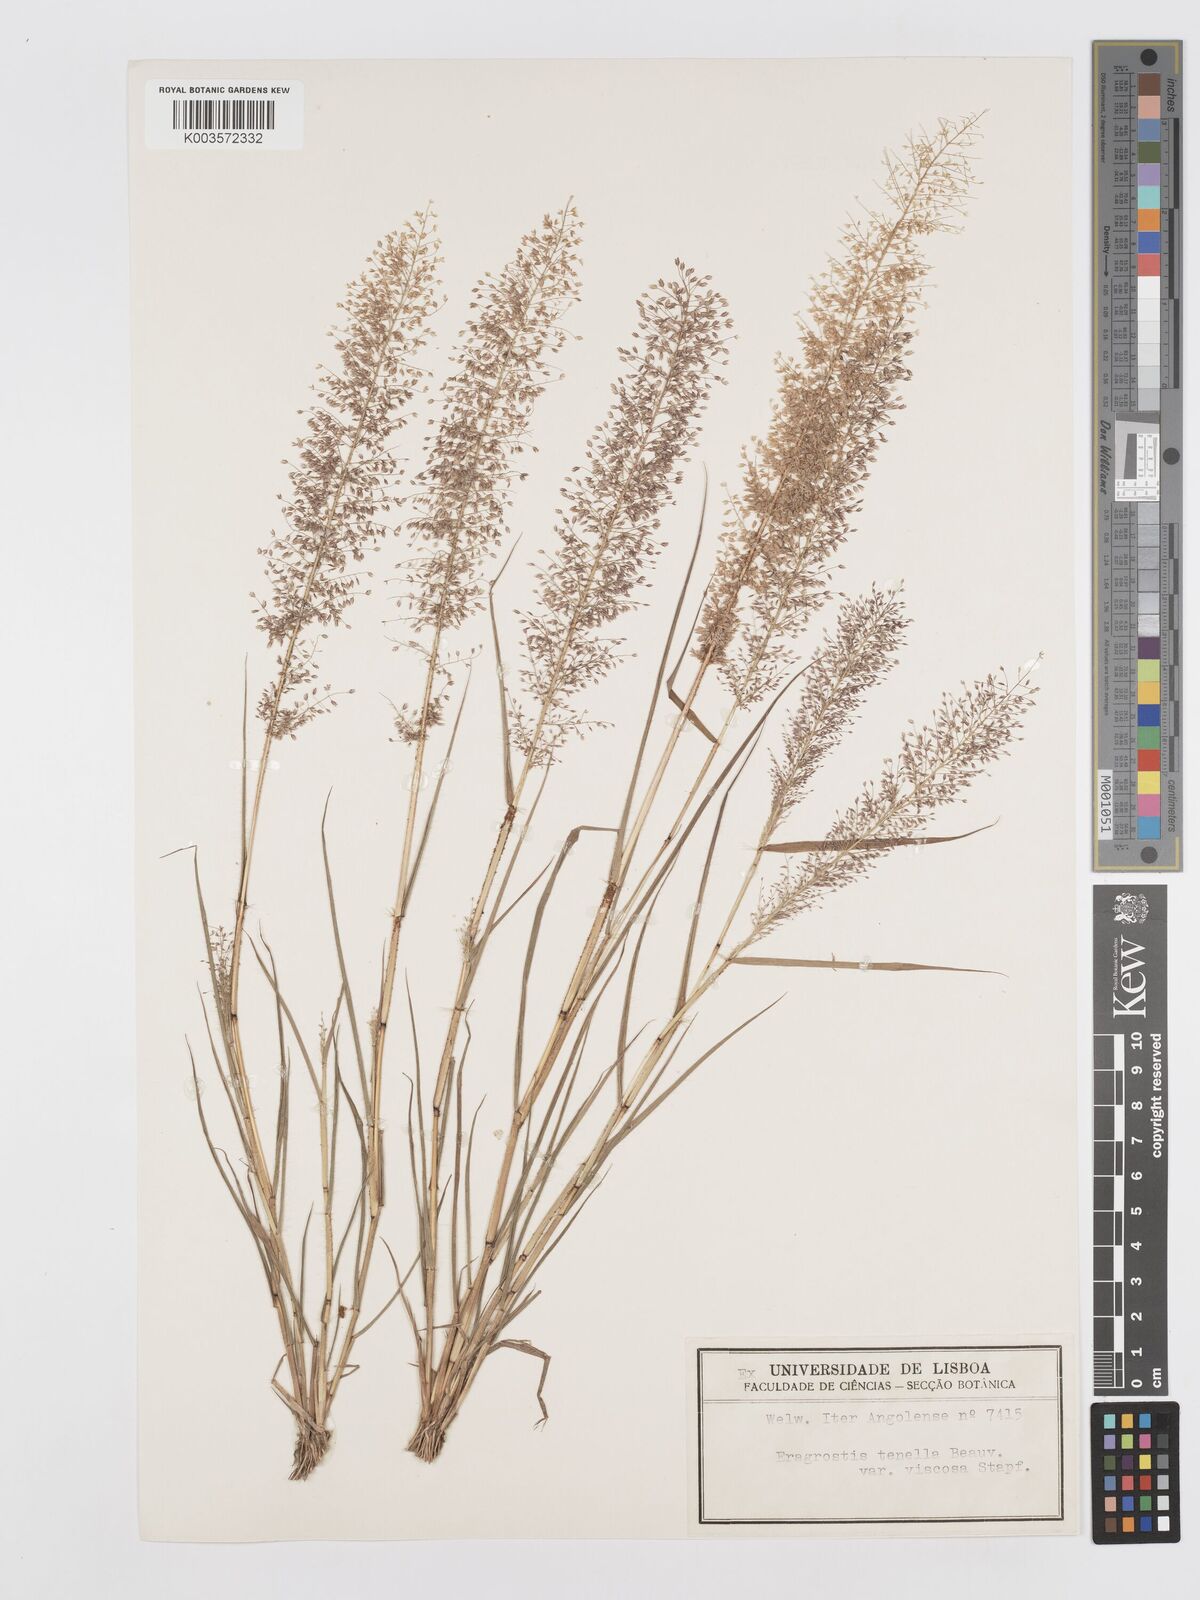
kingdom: Plantae
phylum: Tracheophyta
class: Liliopsida
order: Poales
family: Poaceae
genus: Eragrostis
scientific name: Eragrostis
